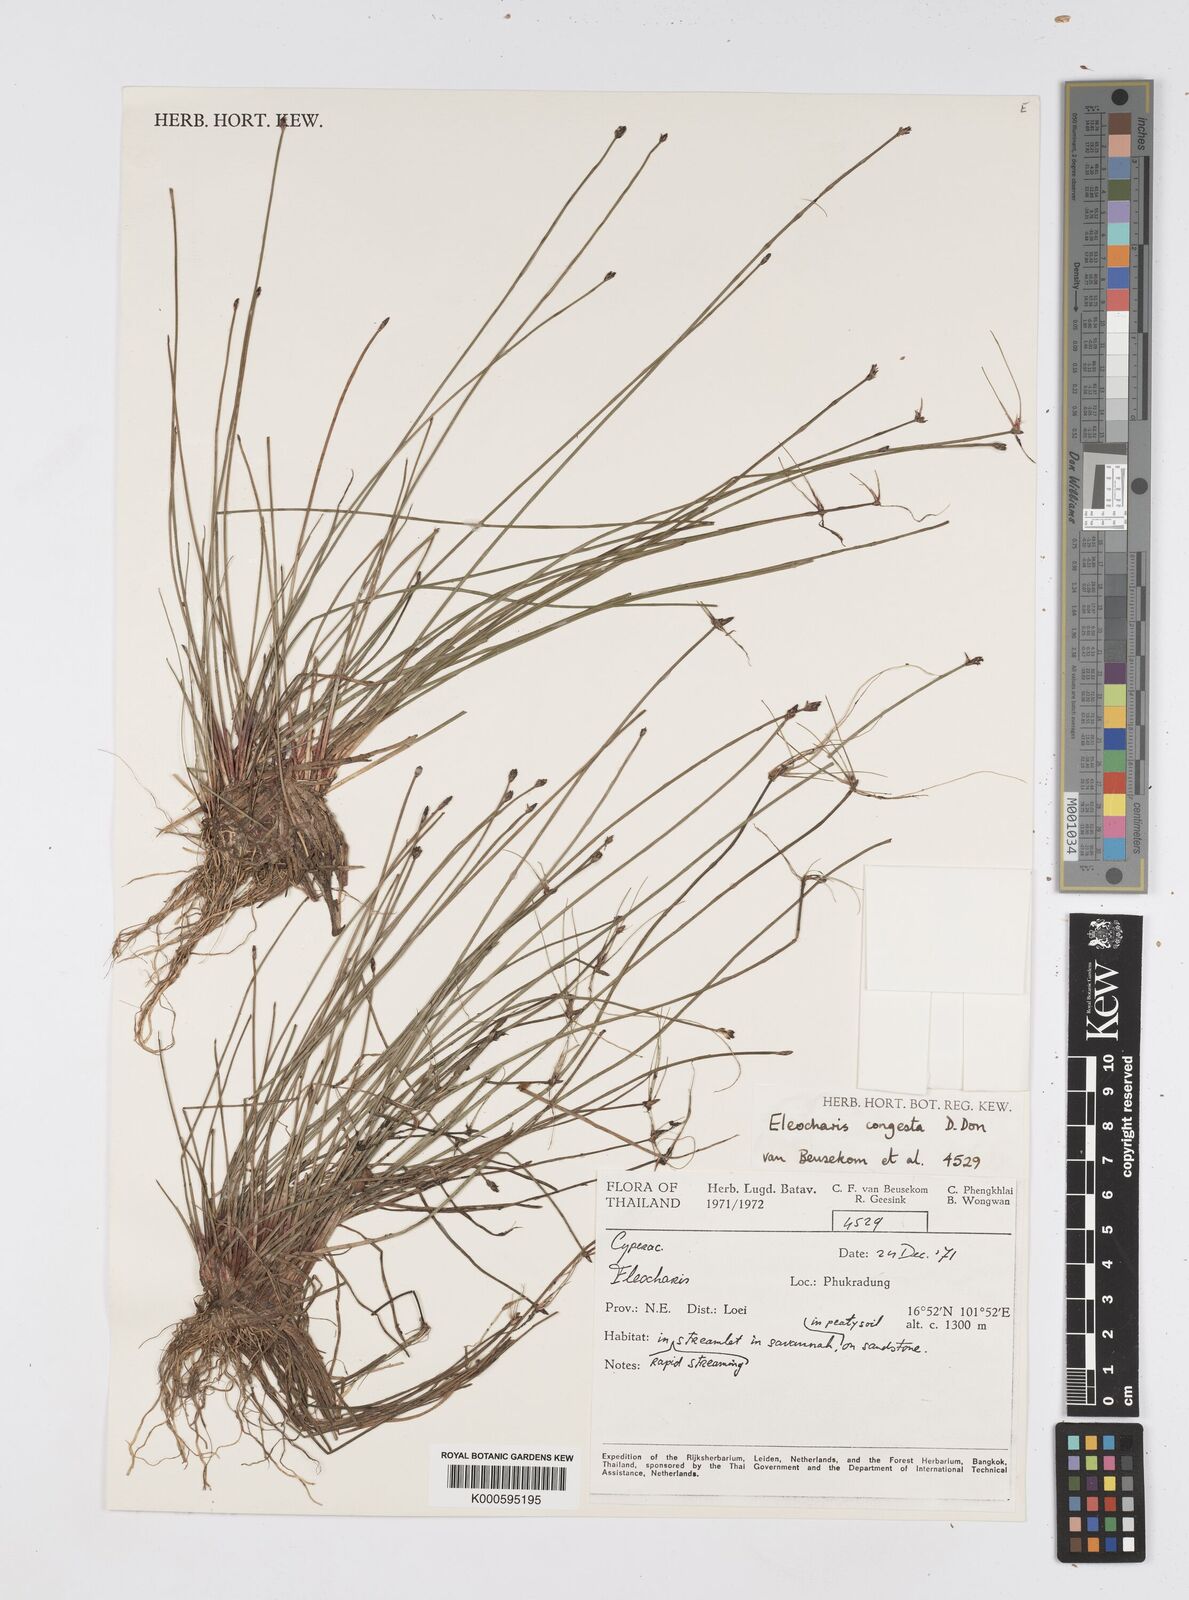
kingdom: Plantae
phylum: Tracheophyta
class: Liliopsida
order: Poales
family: Cyperaceae
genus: Eleocharis
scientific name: Eleocharis congesta
